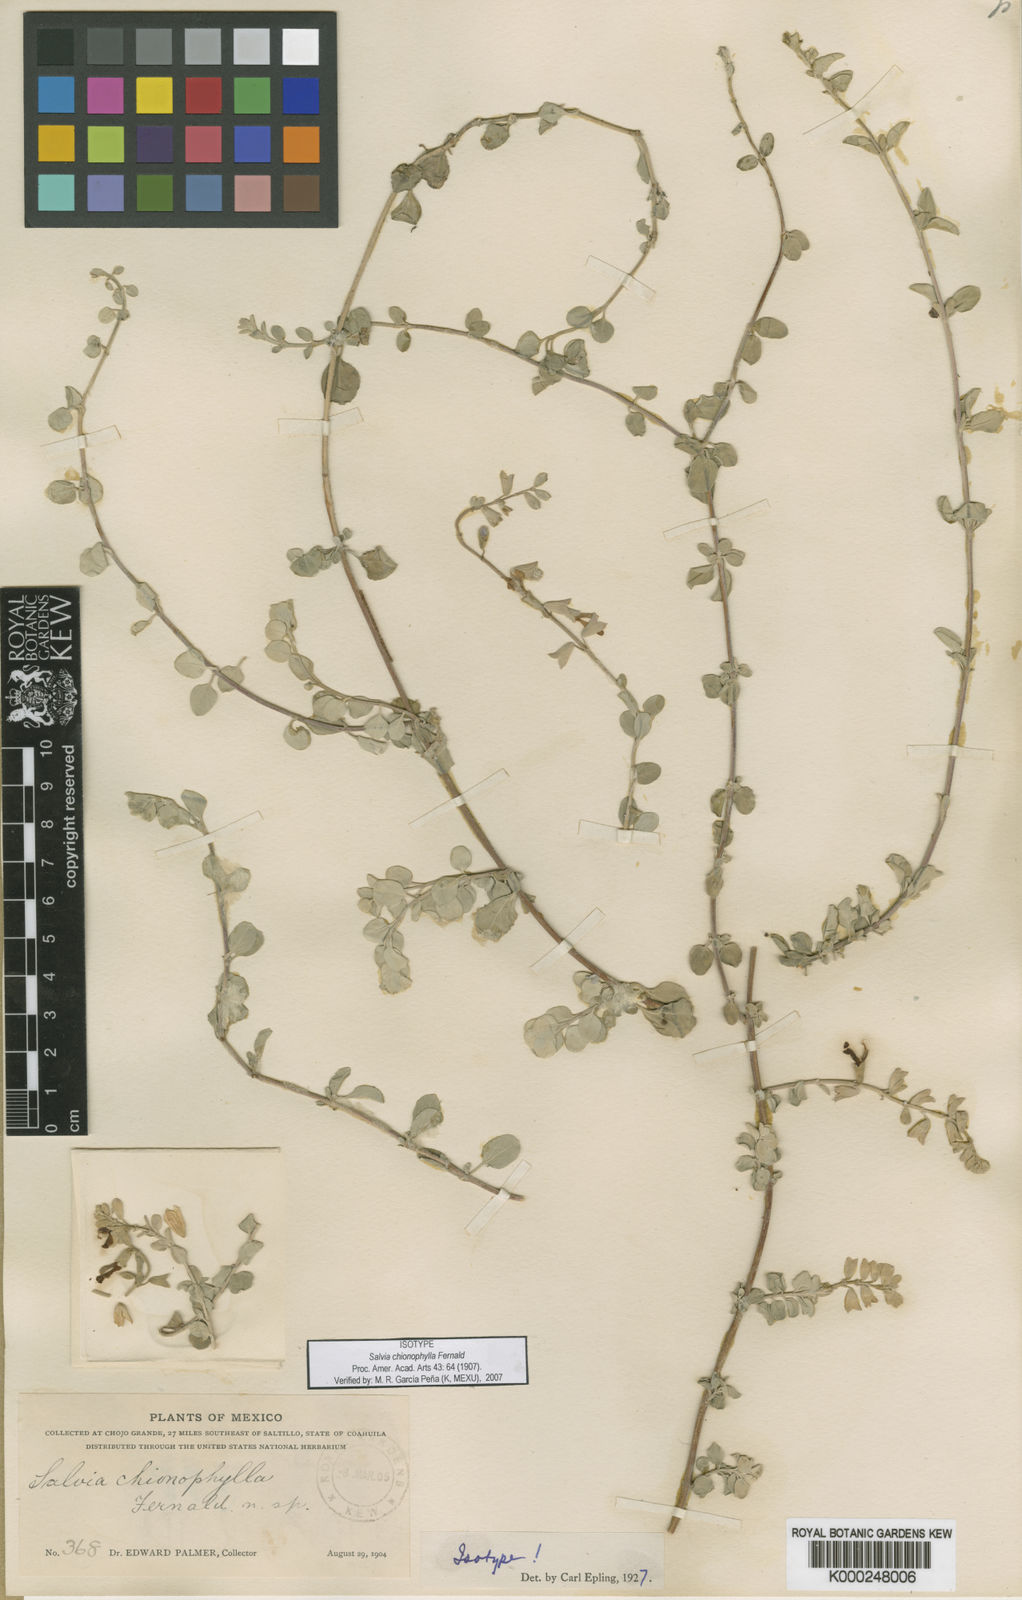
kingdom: Plantae
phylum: Tracheophyta
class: Magnoliopsida
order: Lamiales
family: Lamiaceae
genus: Salvia
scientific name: Salvia chionophylla
